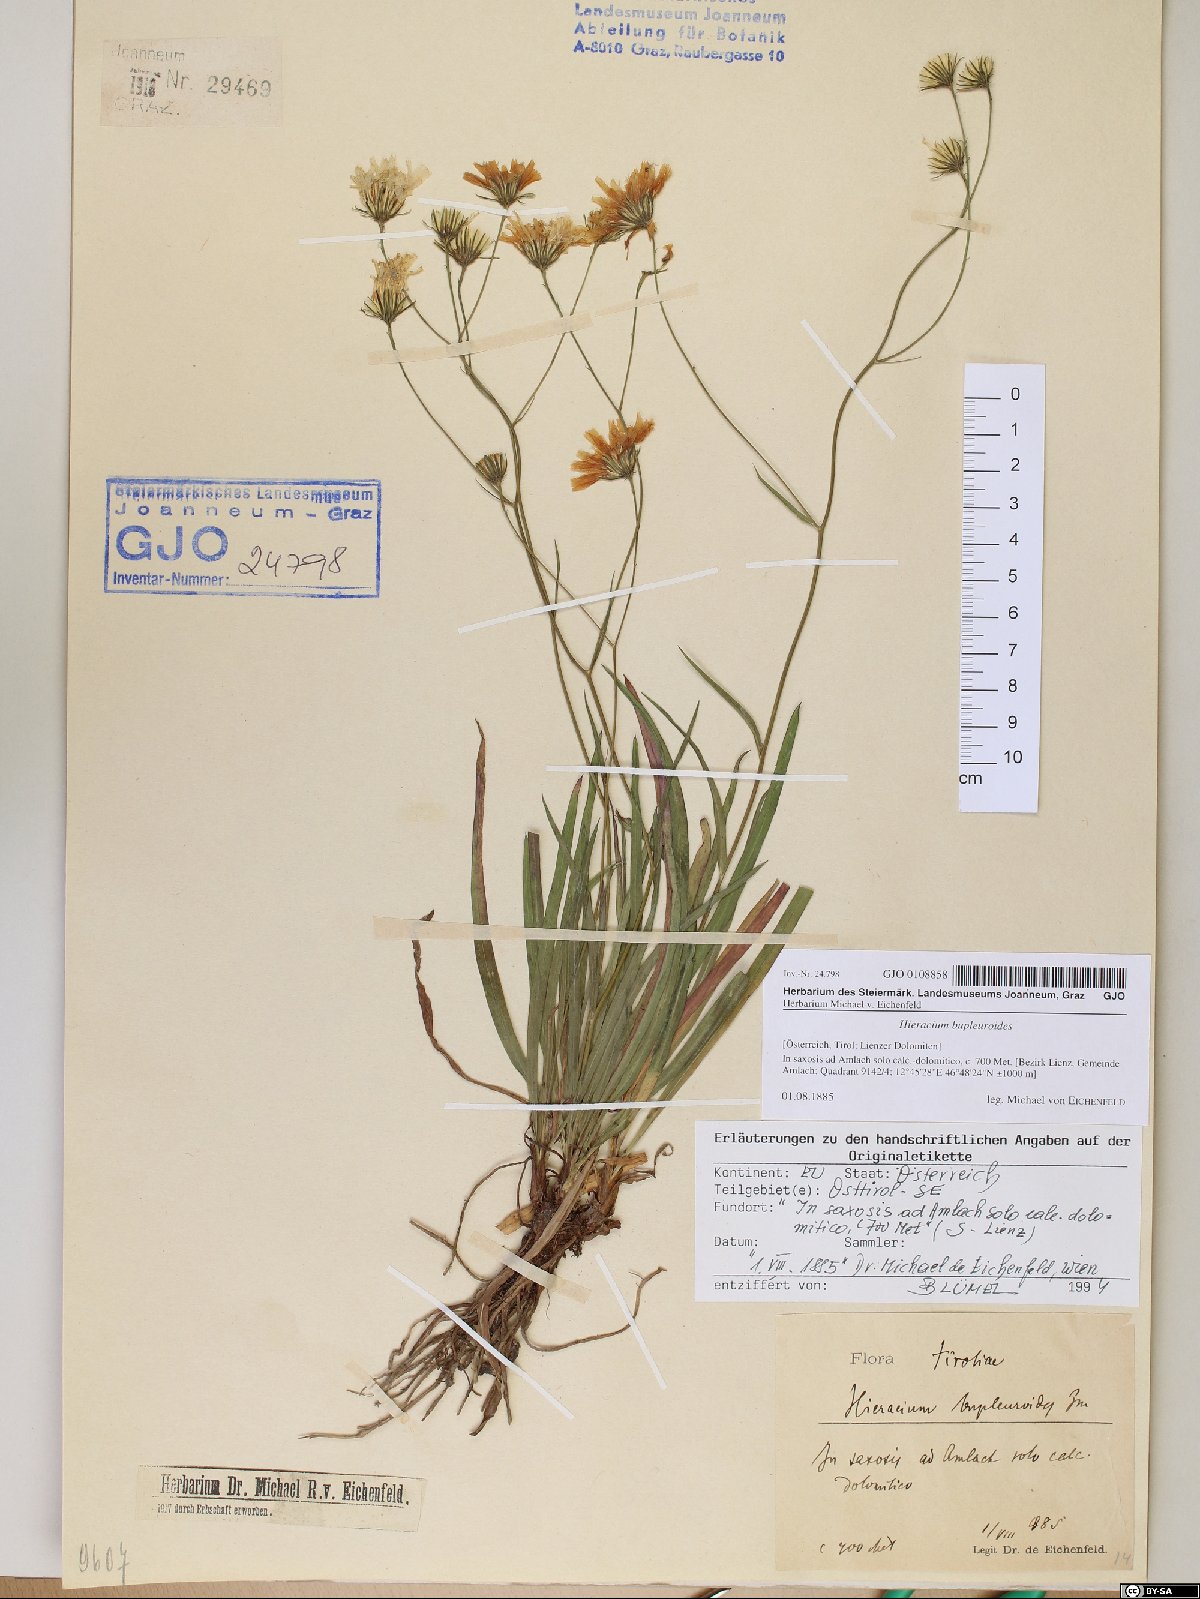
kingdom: Plantae
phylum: Tracheophyta
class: Magnoliopsida
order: Asterales
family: Asteraceae
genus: Hieracium
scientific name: Hieracium bupleuroides
